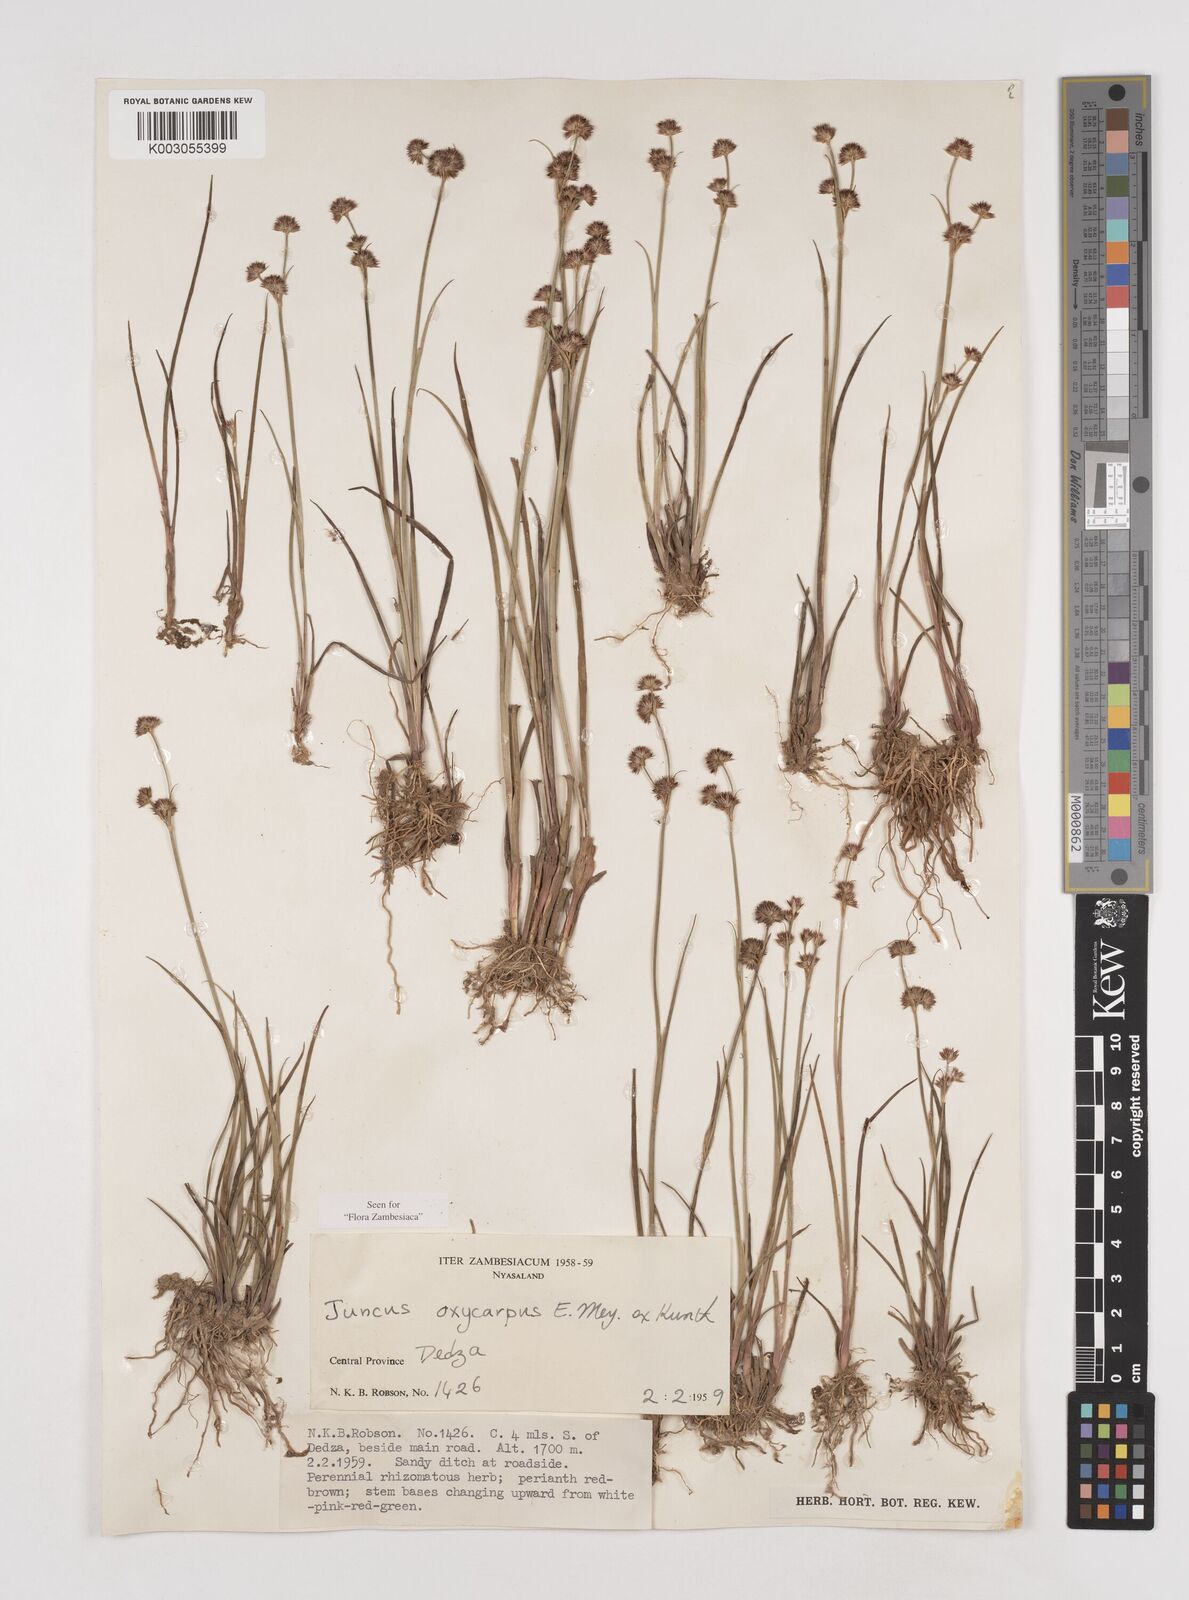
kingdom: Plantae
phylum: Tracheophyta
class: Liliopsida
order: Poales
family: Juncaceae
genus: Juncus
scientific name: Juncus oxycarpus
